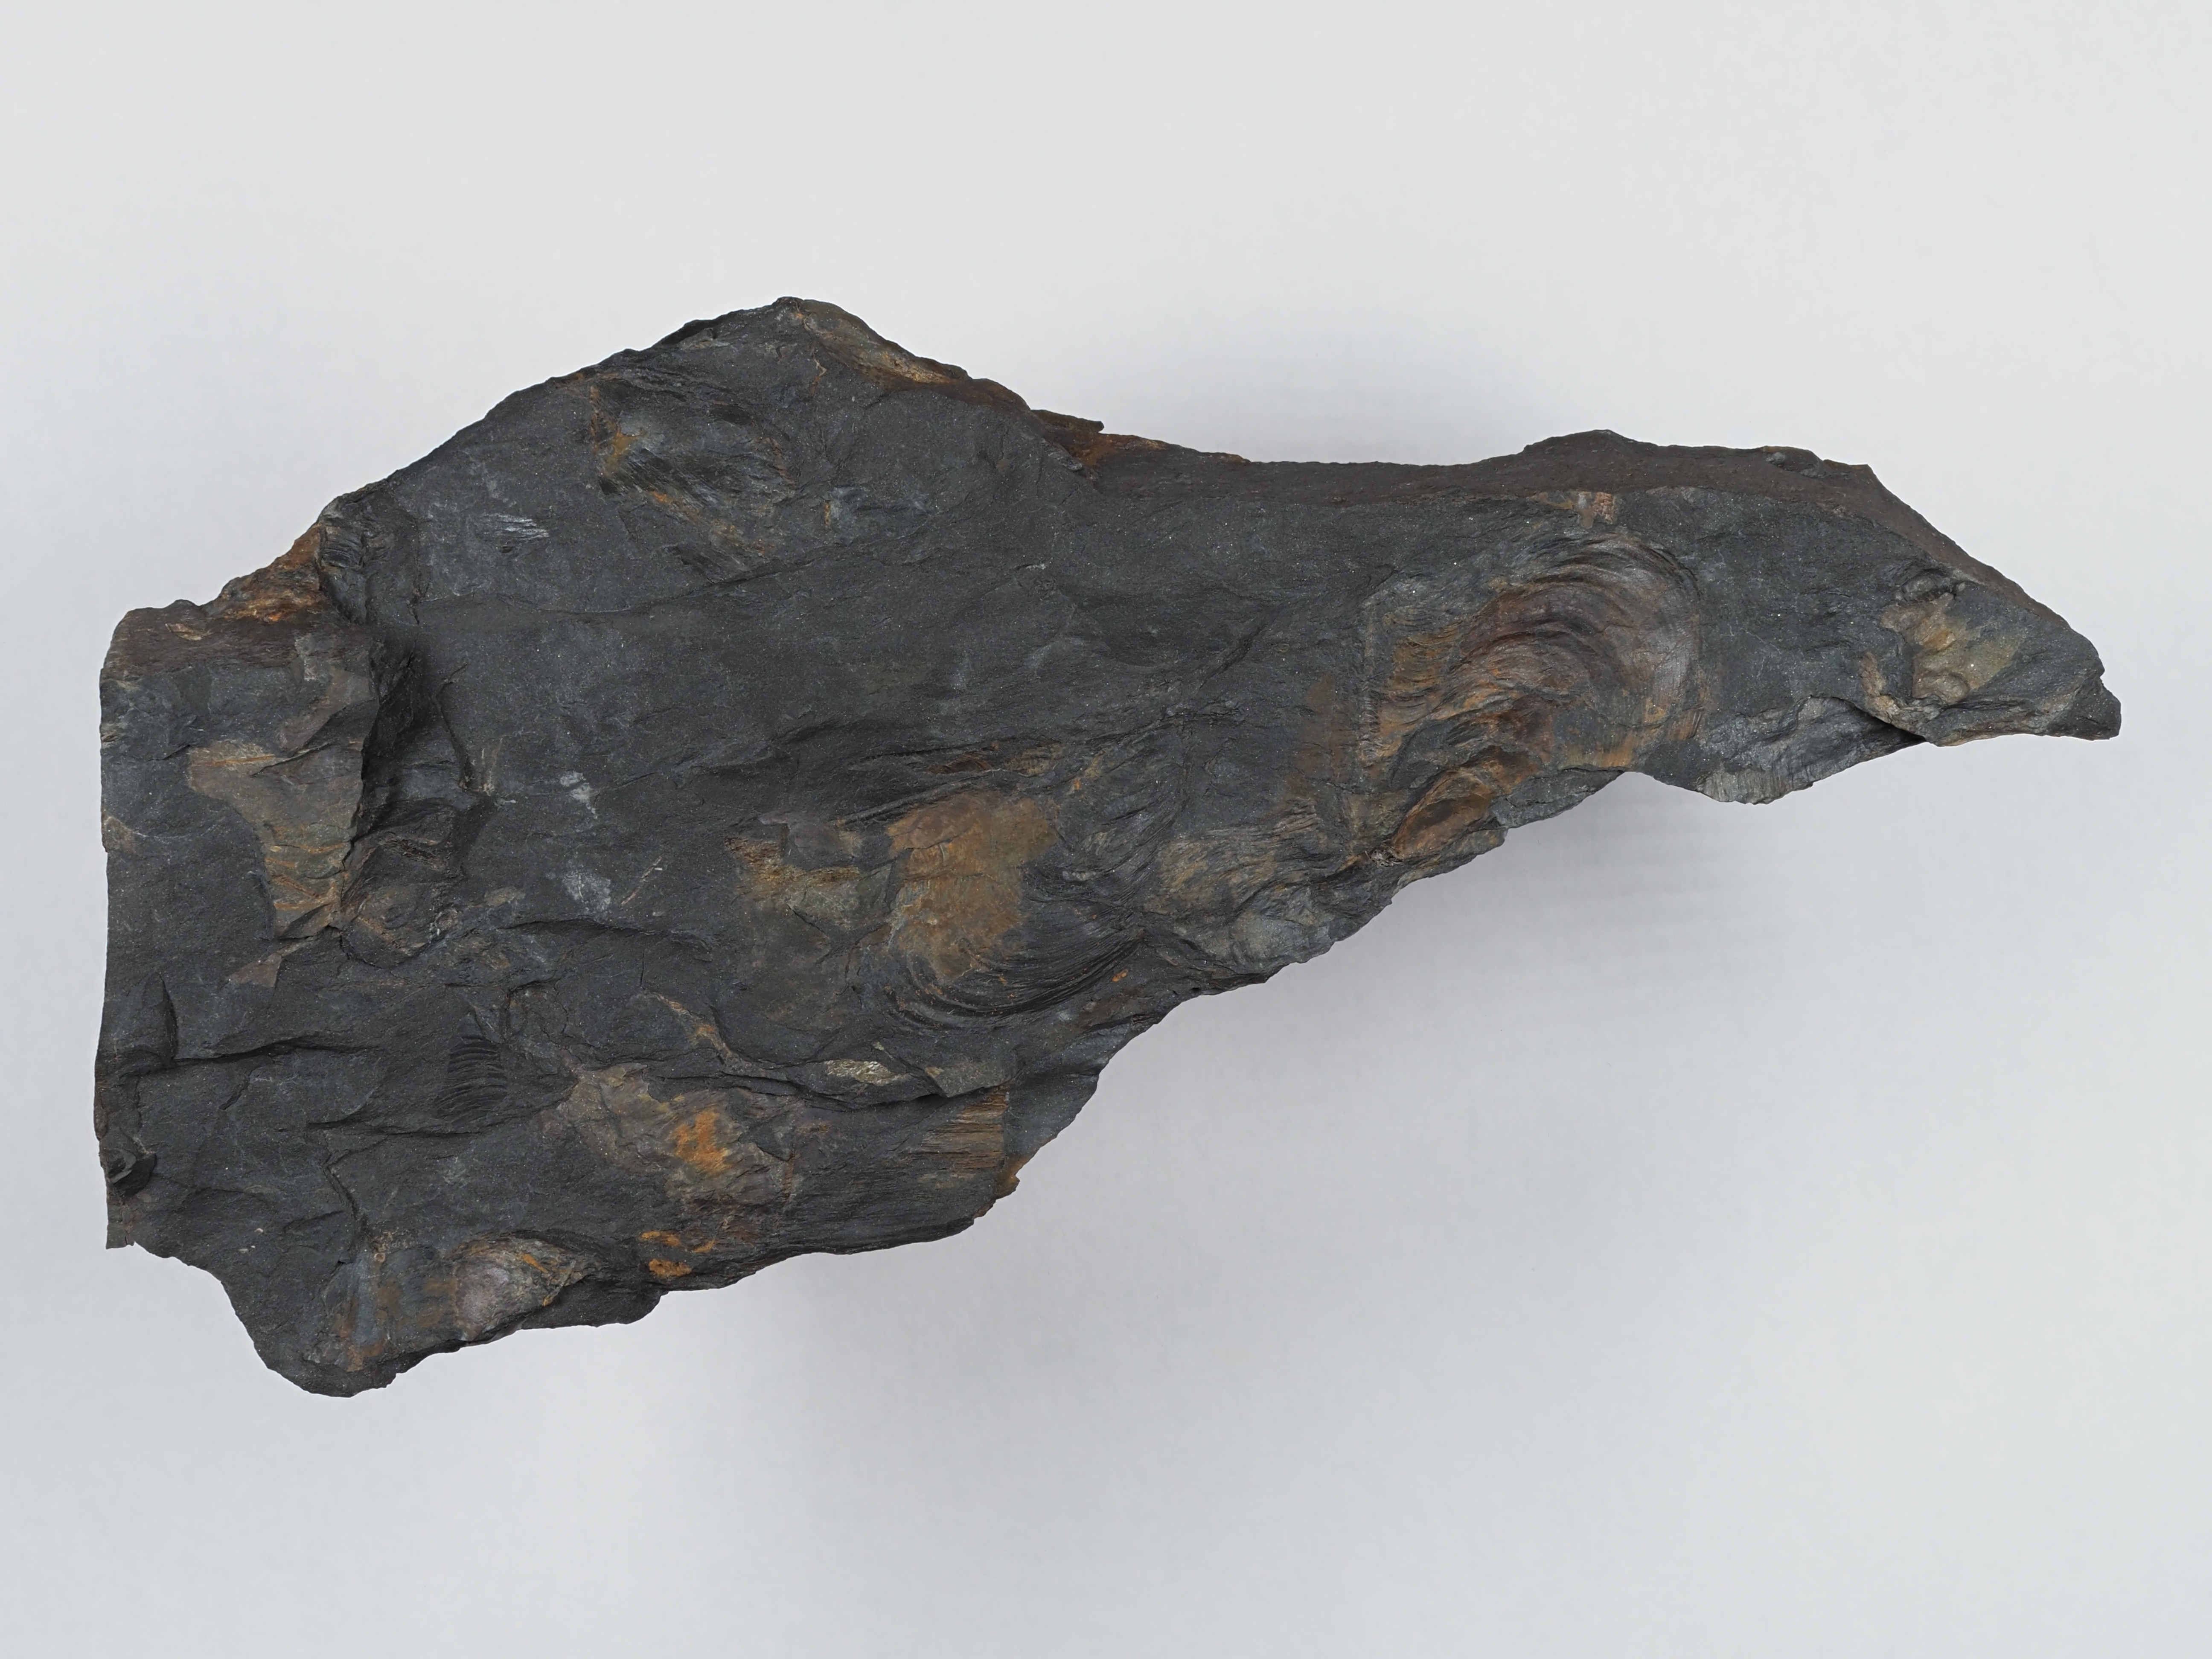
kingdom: Animalia
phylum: Mollusca
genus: Klinoptera
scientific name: Klinoptera
